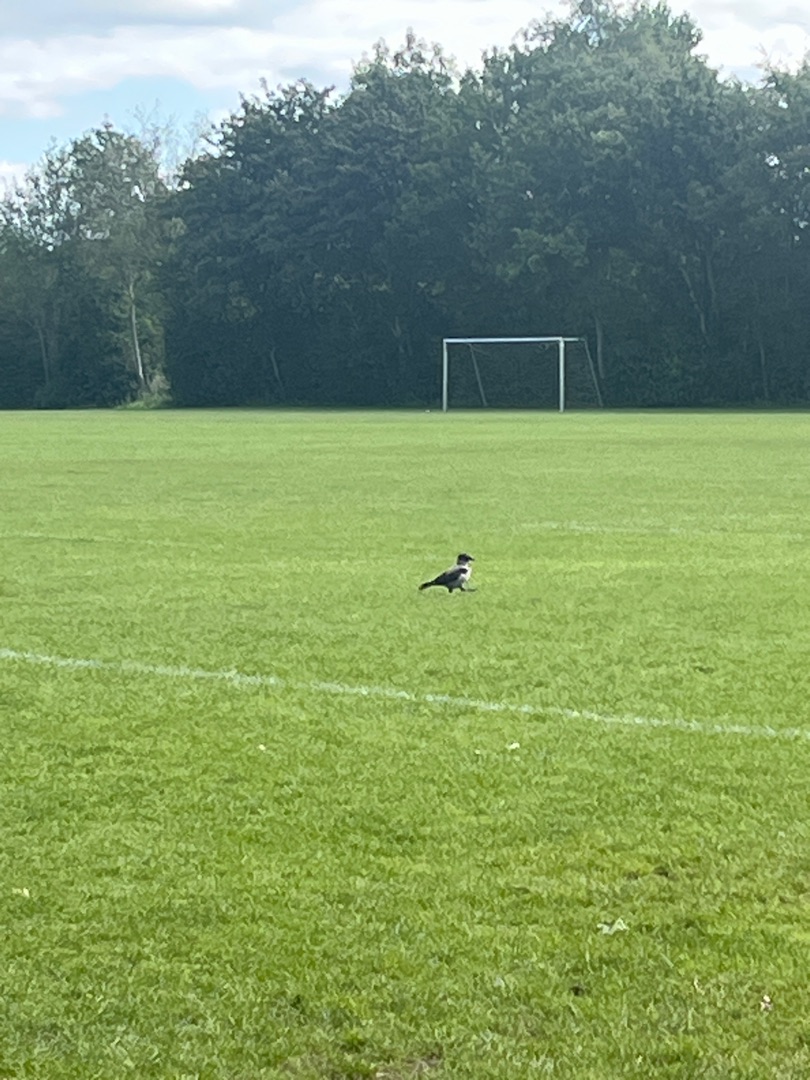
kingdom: Animalia
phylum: Chordata
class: Aves
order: Passeriformes
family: Corvidae
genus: Corvus
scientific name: Corvus cornix
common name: Gråkrage
